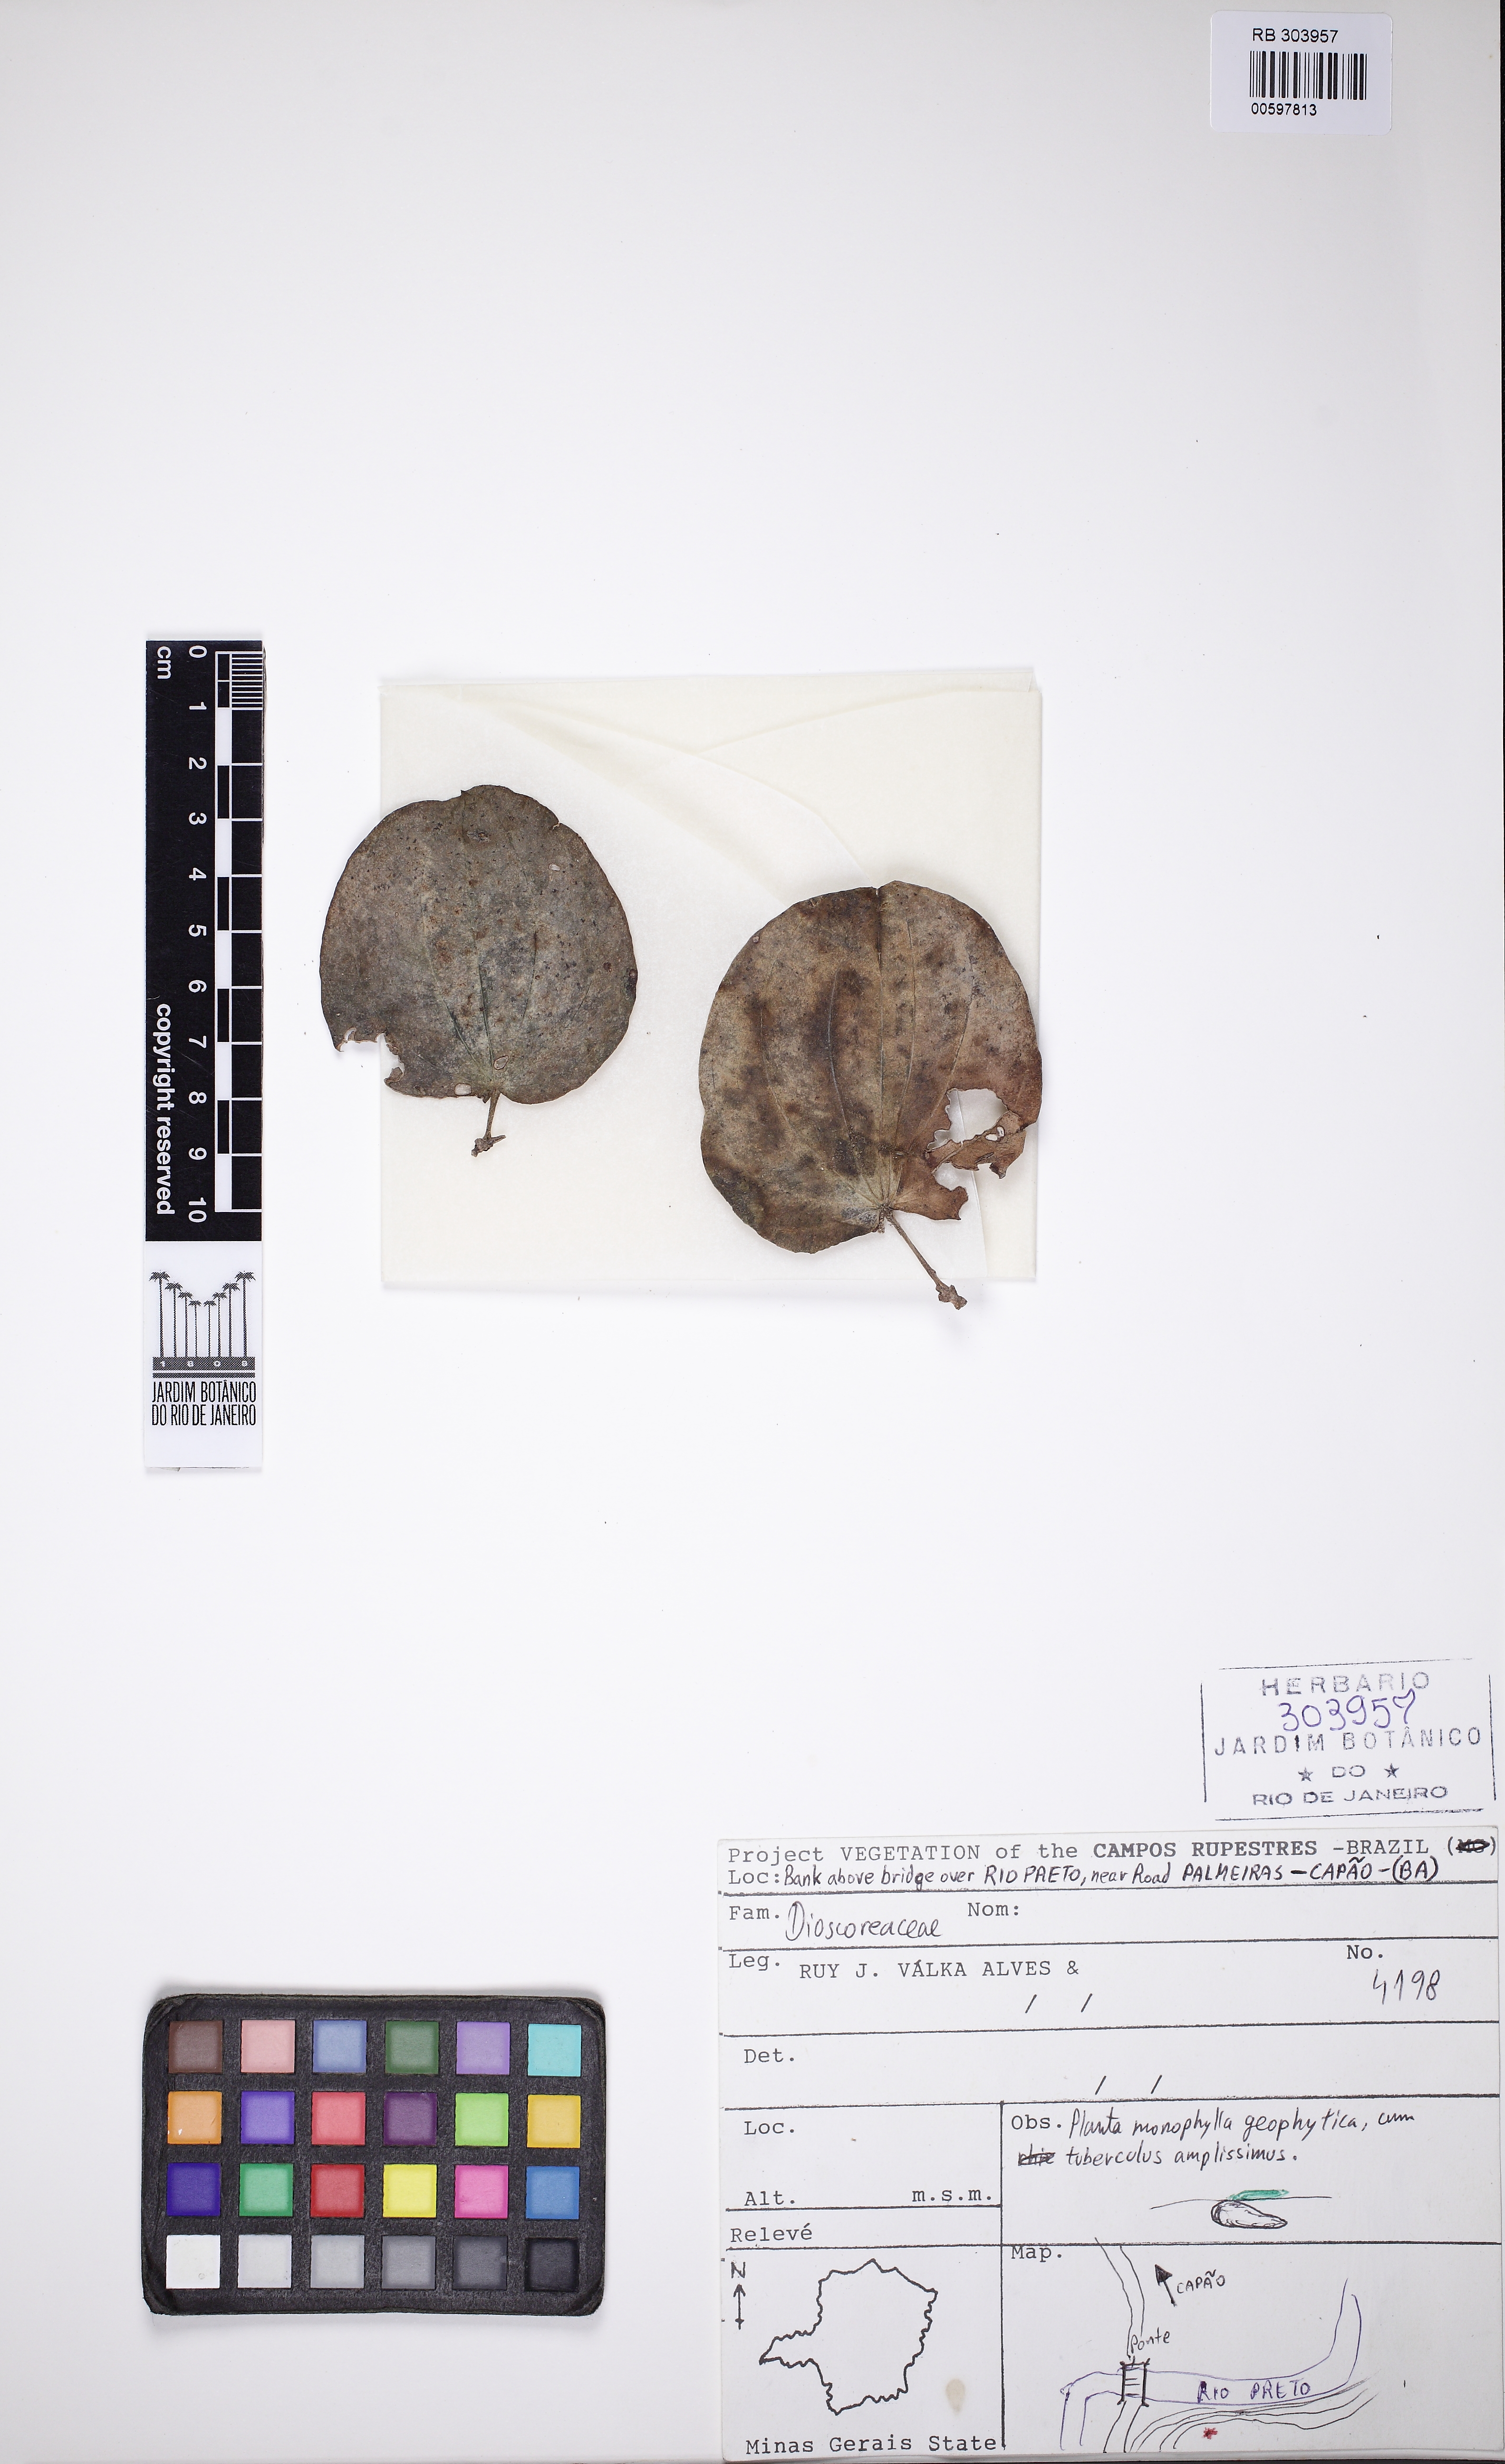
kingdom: Plantae
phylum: Tracheophyta
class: Liliopsida
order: Dioscoreales
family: Dioscoreaceae
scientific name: Dioscoreaceae
